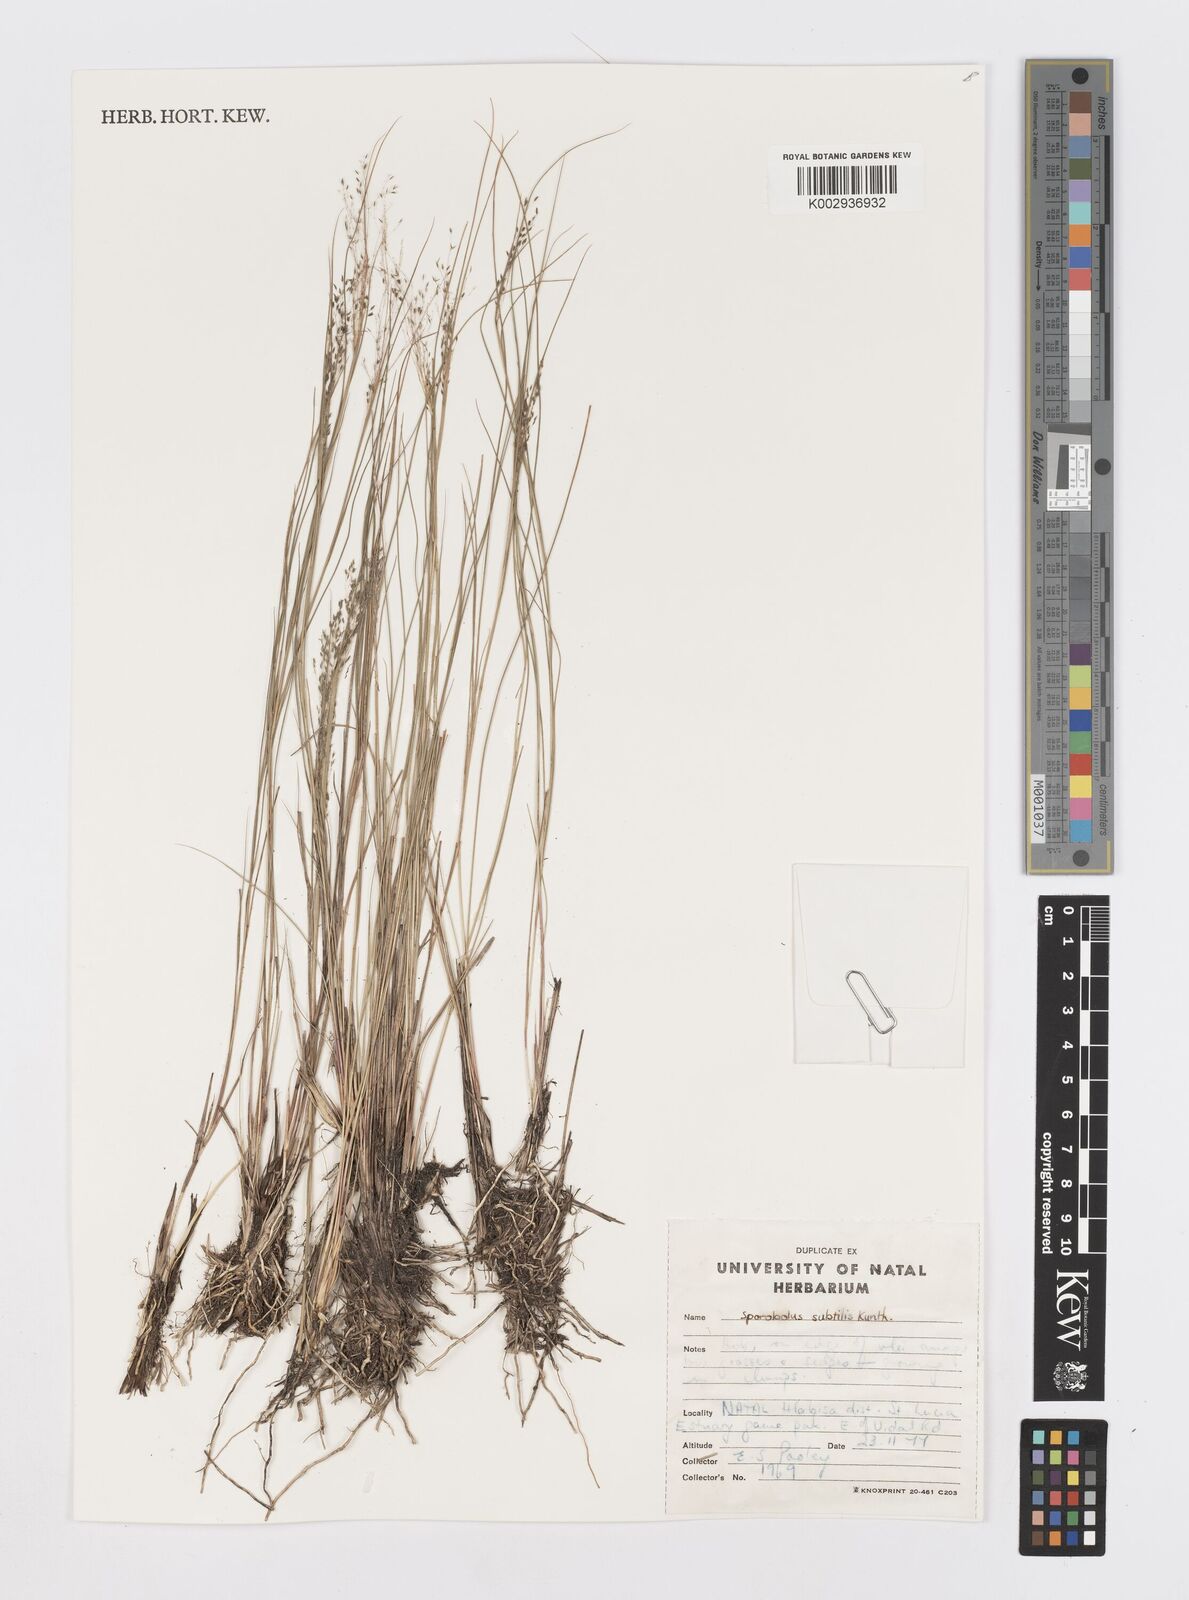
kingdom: Plantae
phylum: Tracheophyta
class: Liliopsida
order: Poales
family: Poaceae
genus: Sporobolus
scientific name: Sporobolus subtilis
